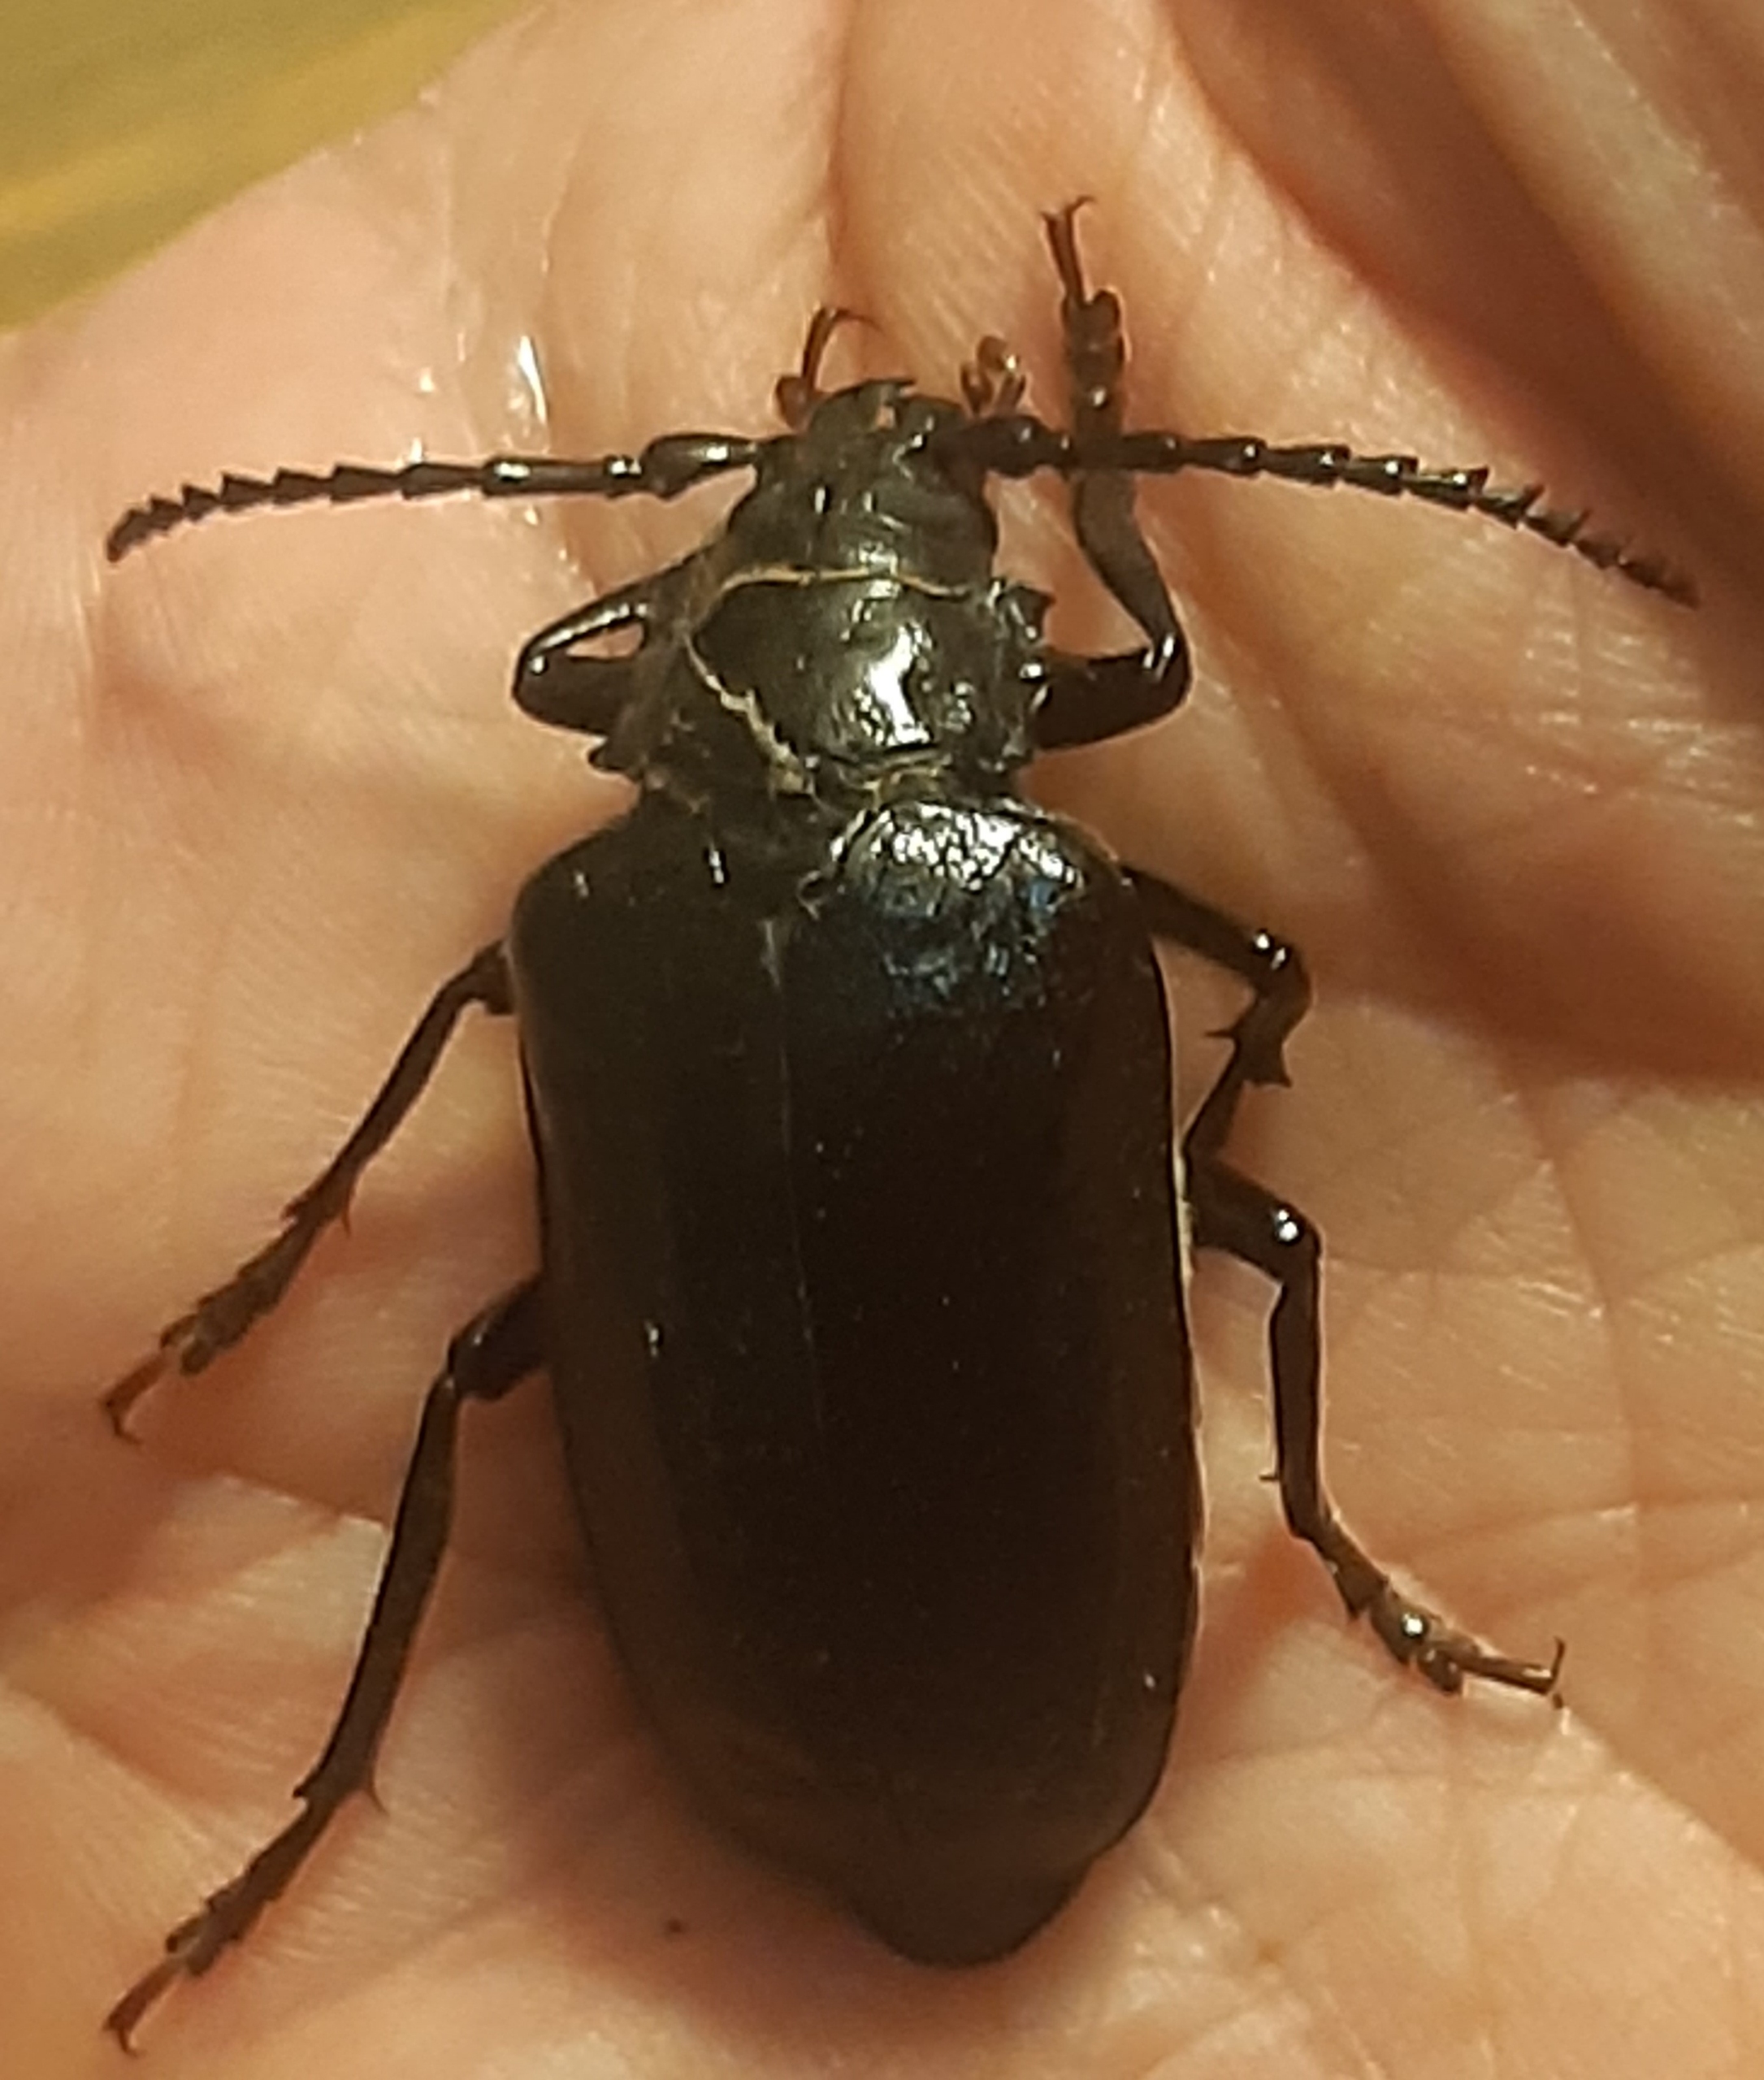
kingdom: Animalia
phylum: Arthropoda
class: Insecta
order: Coleoptera
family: Cerambycidae
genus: Prionus
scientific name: Prionus coriarius
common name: Garver
